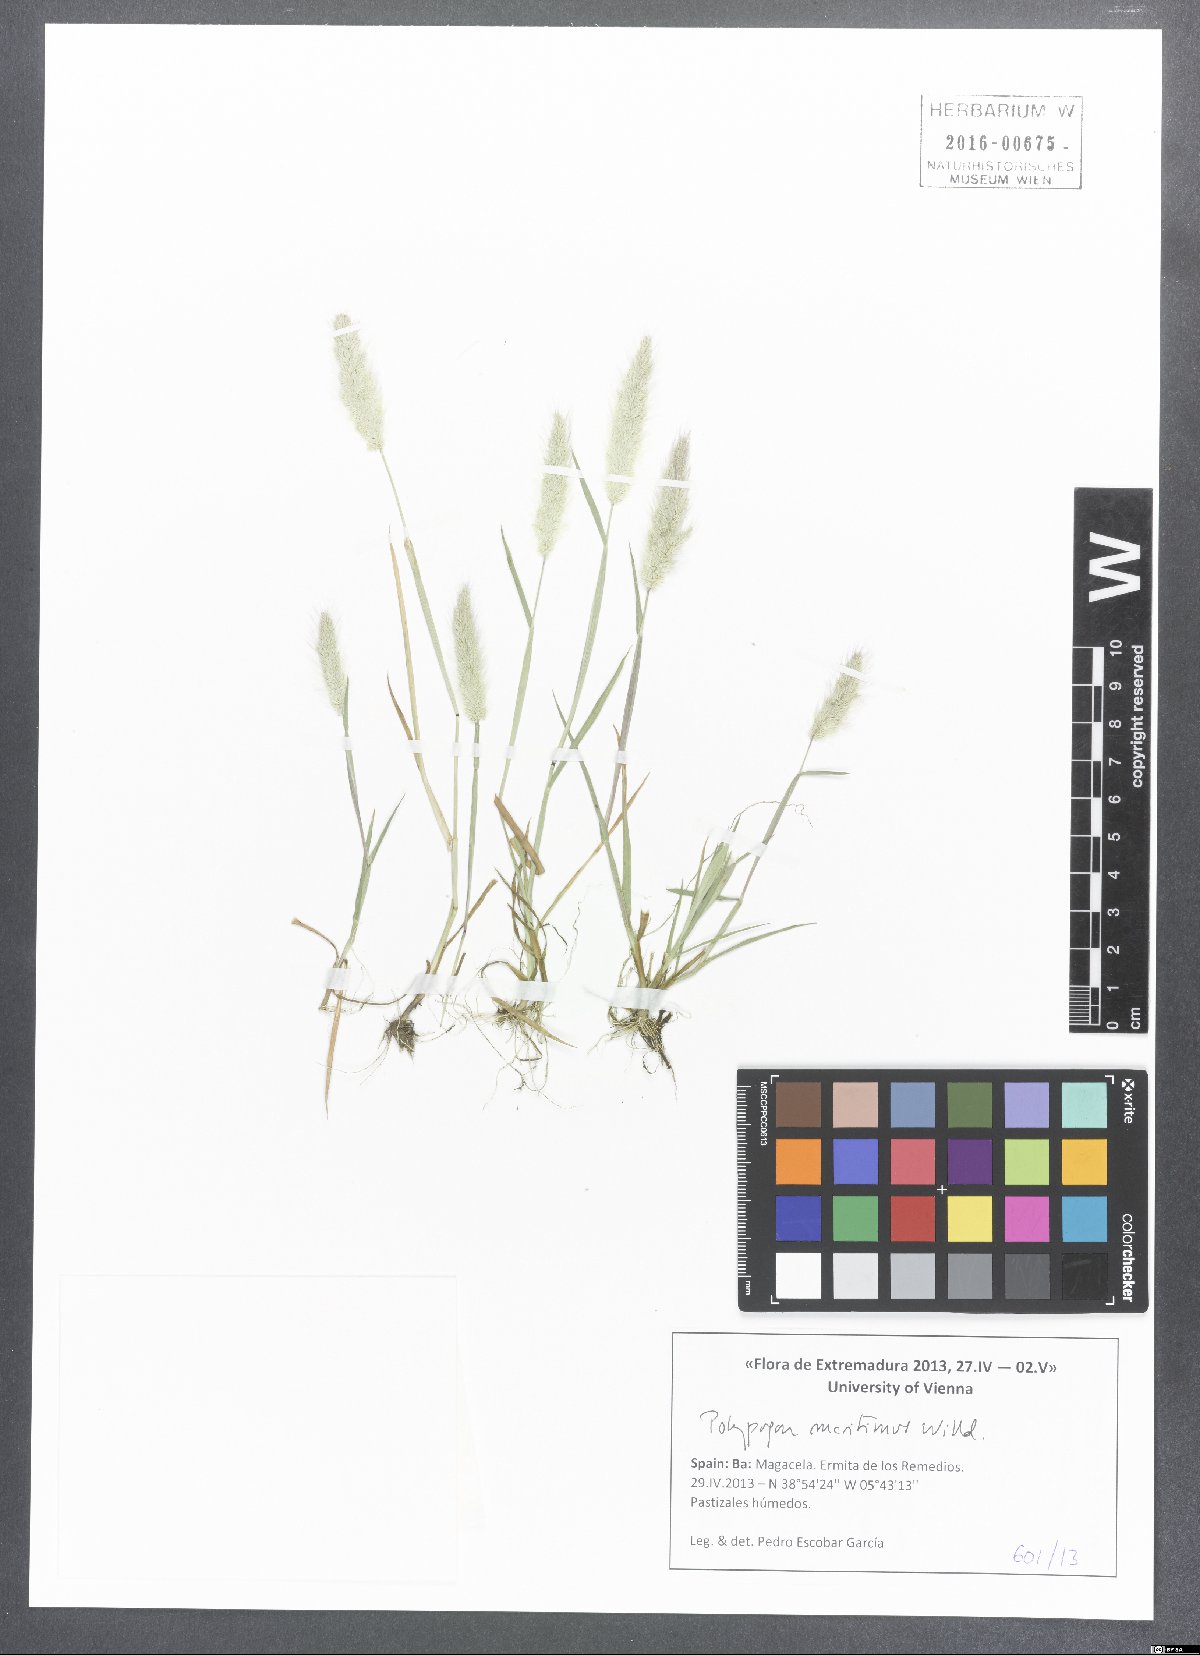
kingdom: Plantae
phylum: Tracheophyta
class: Liliopsida
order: Poales
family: Poaceae
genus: Polypogon
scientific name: Polypogon maritimus
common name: Mediterranean rabbitsfoot grass
